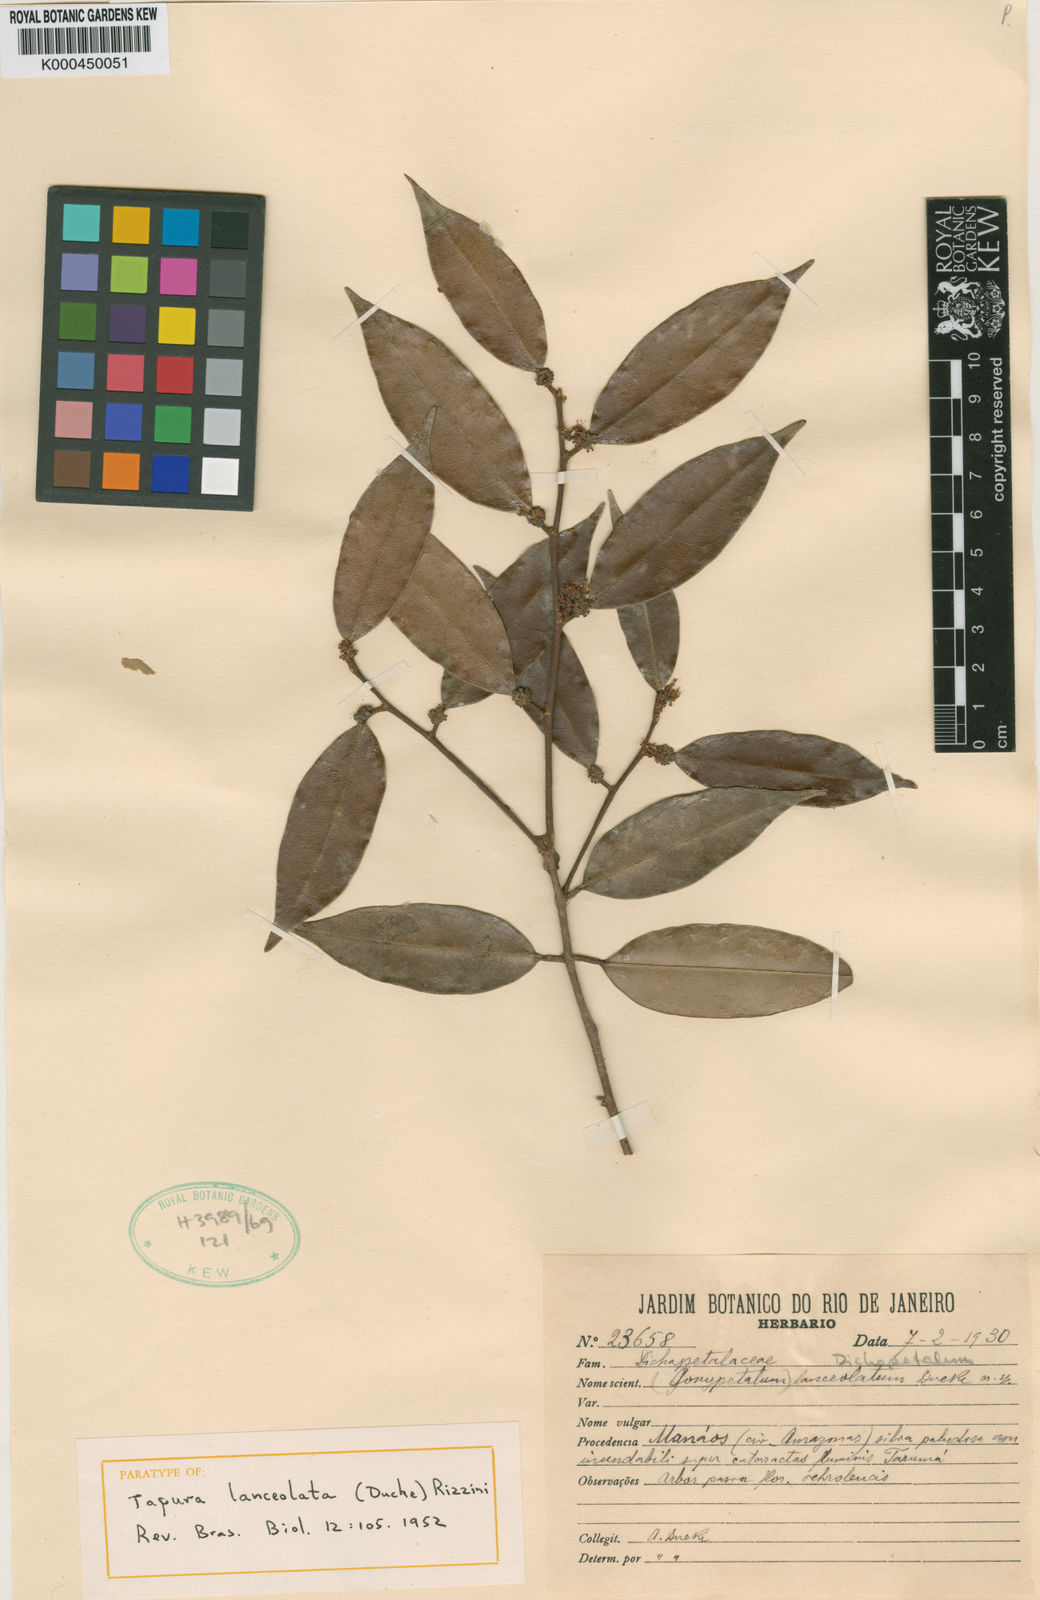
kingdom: Plantae
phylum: Tracheophyta
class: Magnoliopsida
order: Malpighiales
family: Dichapetalaceae
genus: Tapura
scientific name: Tapura lanceolata
